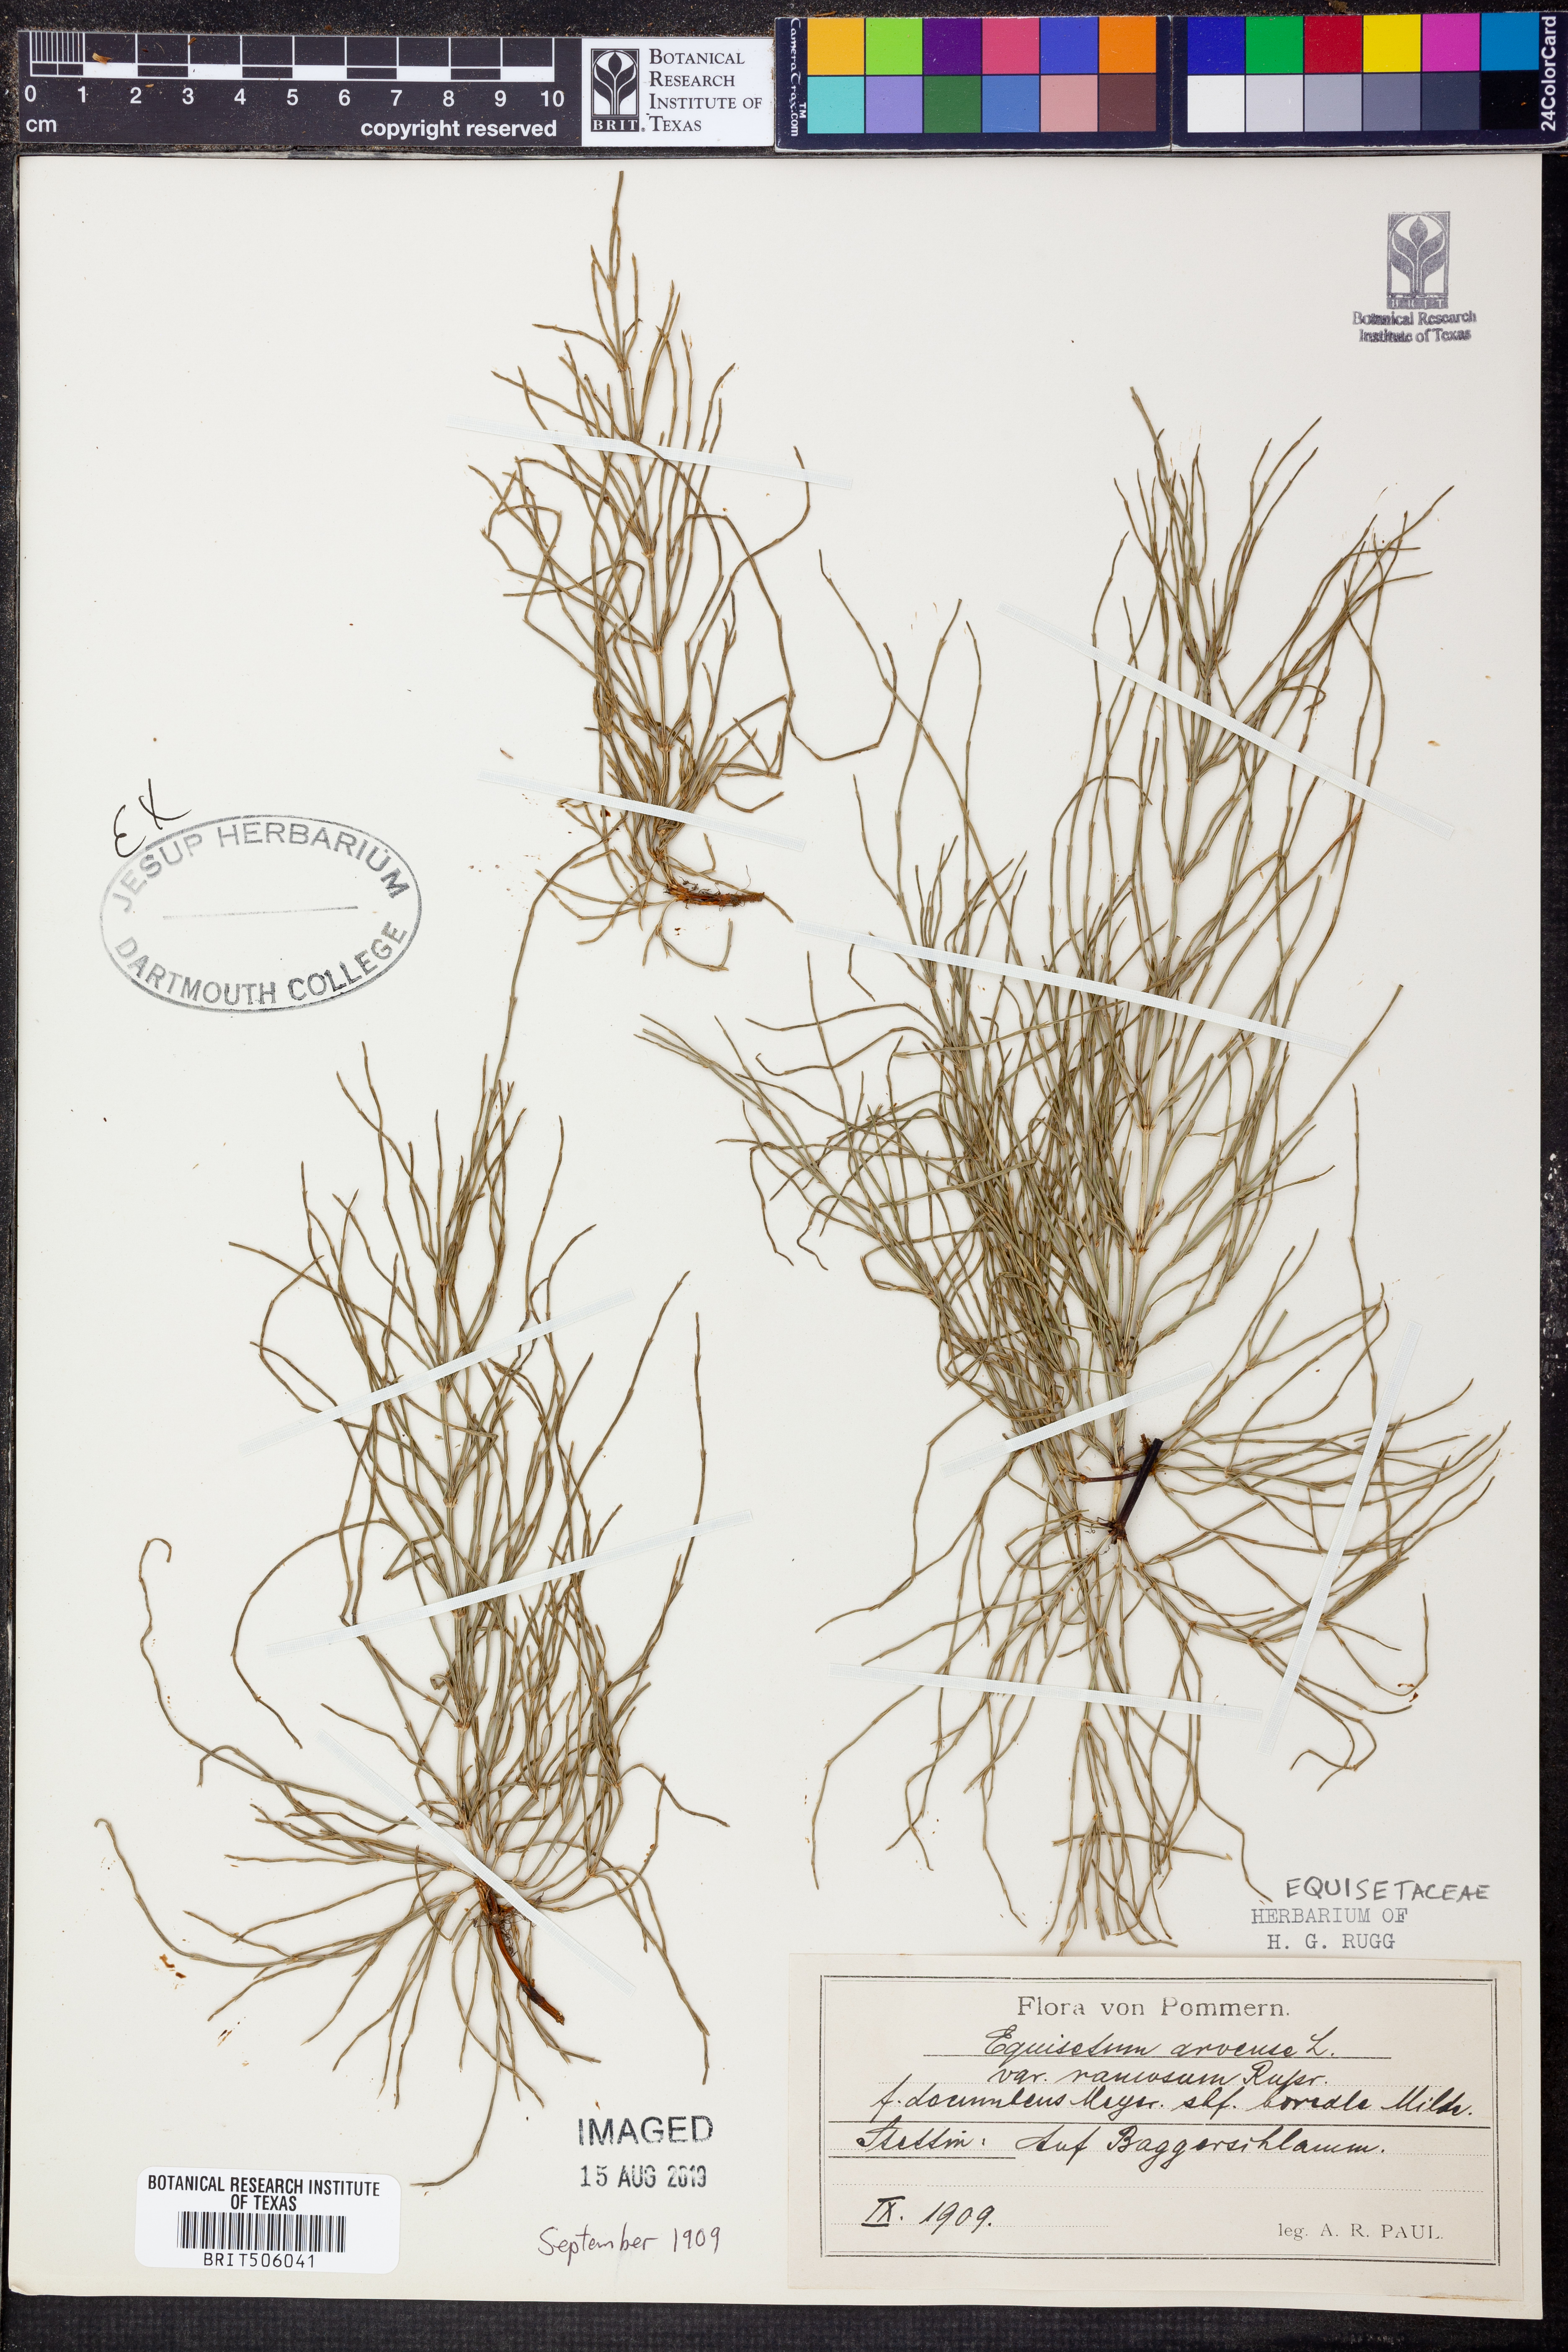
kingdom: Plantae
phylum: Tracheophyta
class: Polypodiopsida
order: Equisetales
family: Equisetaceae
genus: Equisetum
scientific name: Equisetum arvense
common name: Field horsetail
